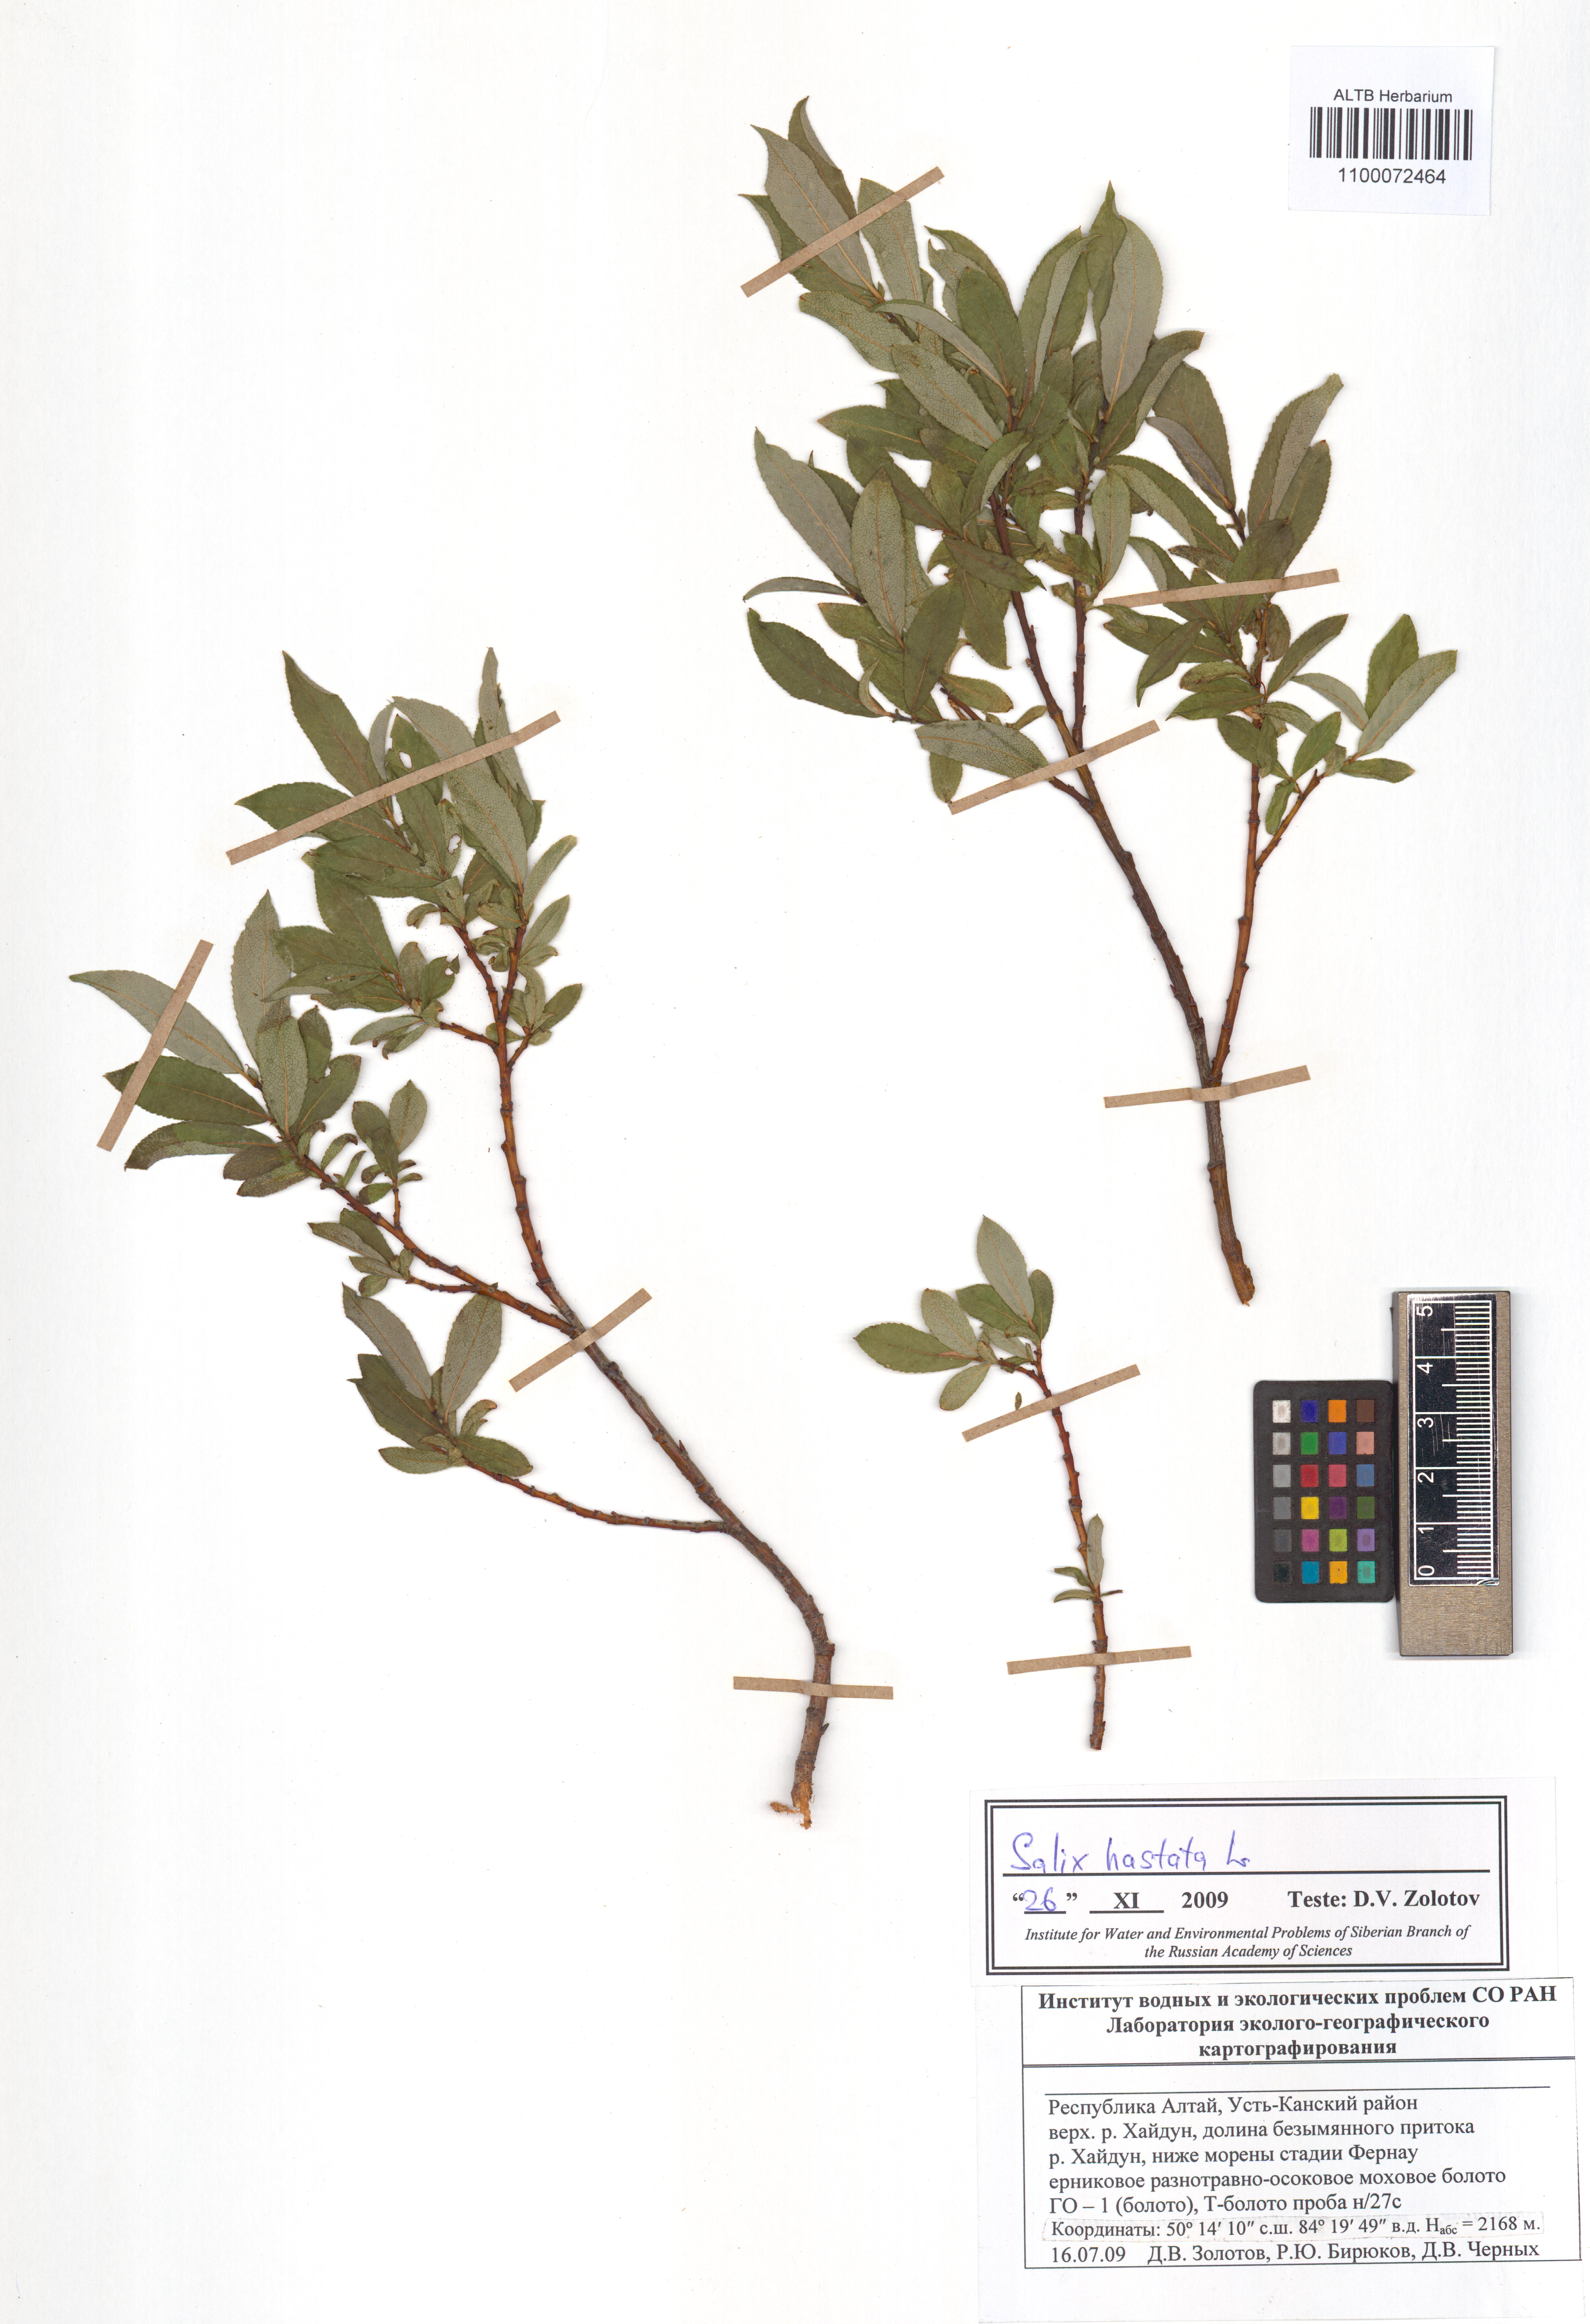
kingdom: Plantae
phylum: Tracheophyta
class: Magnoliopsida
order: Malpighiales
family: Salicaceae
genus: Salix
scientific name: Salix hastata
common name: Halberd willow
